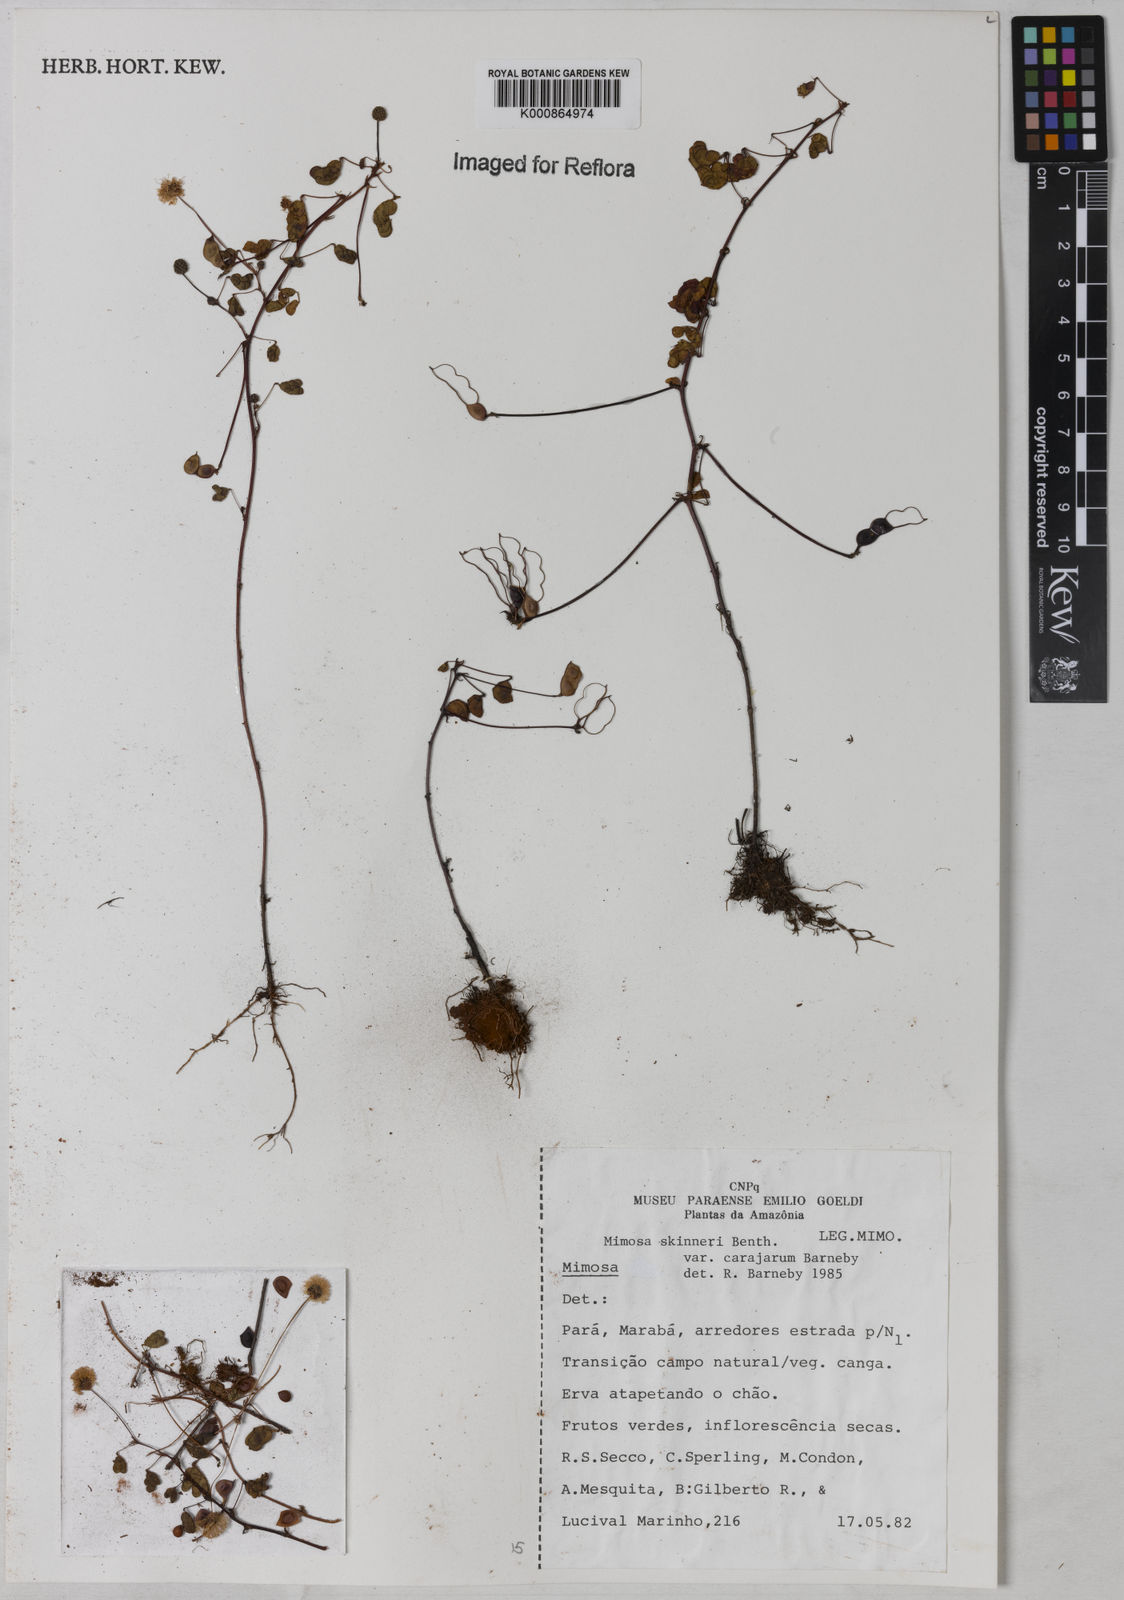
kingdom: Plantae
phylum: Tracheophyta
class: Magnoliopsida
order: Fabales
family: Fabaceae
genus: Mimosa
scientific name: Mimosa skinneri
